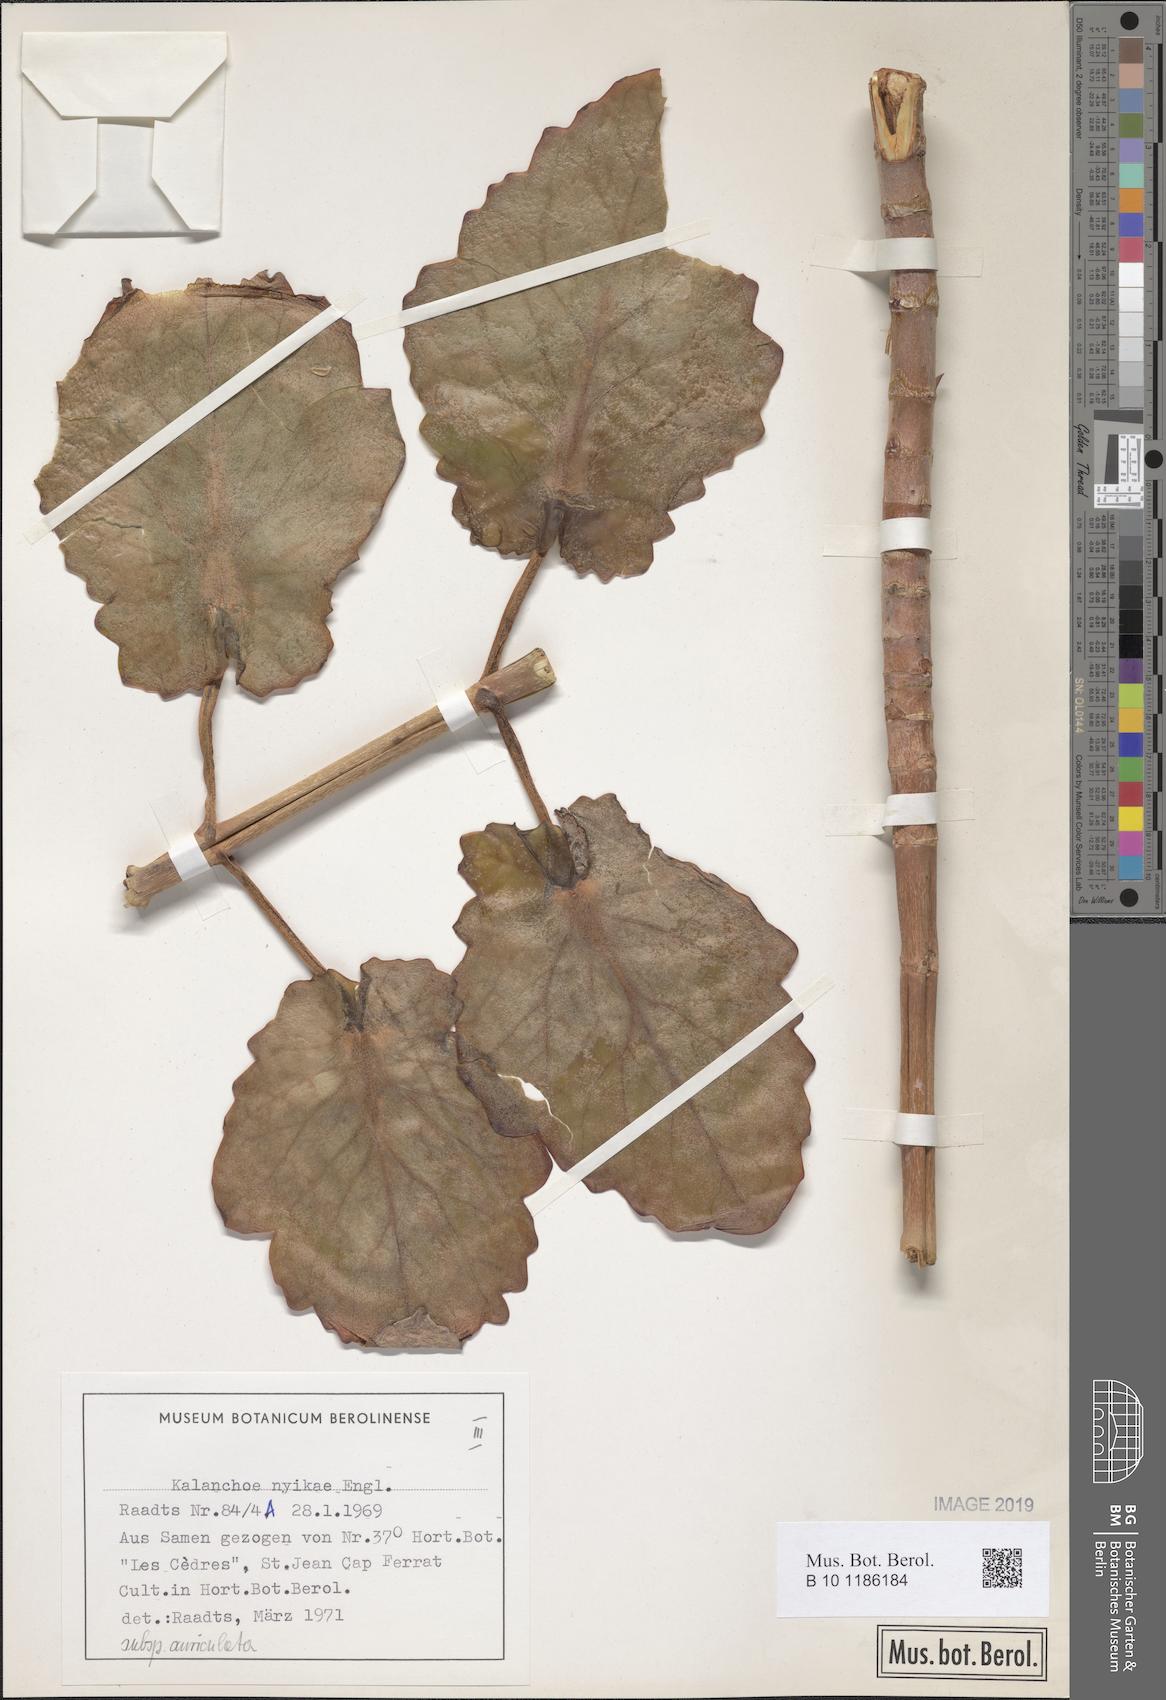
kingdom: Plantae
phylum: Tracheophyta
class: Magnoliopsida
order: Saxifragales
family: Crassulaceae
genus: Kalanchoe
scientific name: Kalanchoe auriculata
